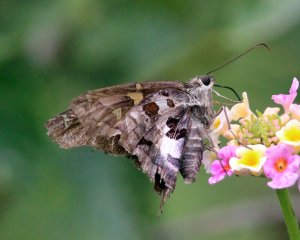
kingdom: Animalia
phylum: Arthropoda
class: Insecta
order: Lepidoptera
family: Hesperiidae
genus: Chioides
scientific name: Chioides zilpa
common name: Zilpa Longtail
